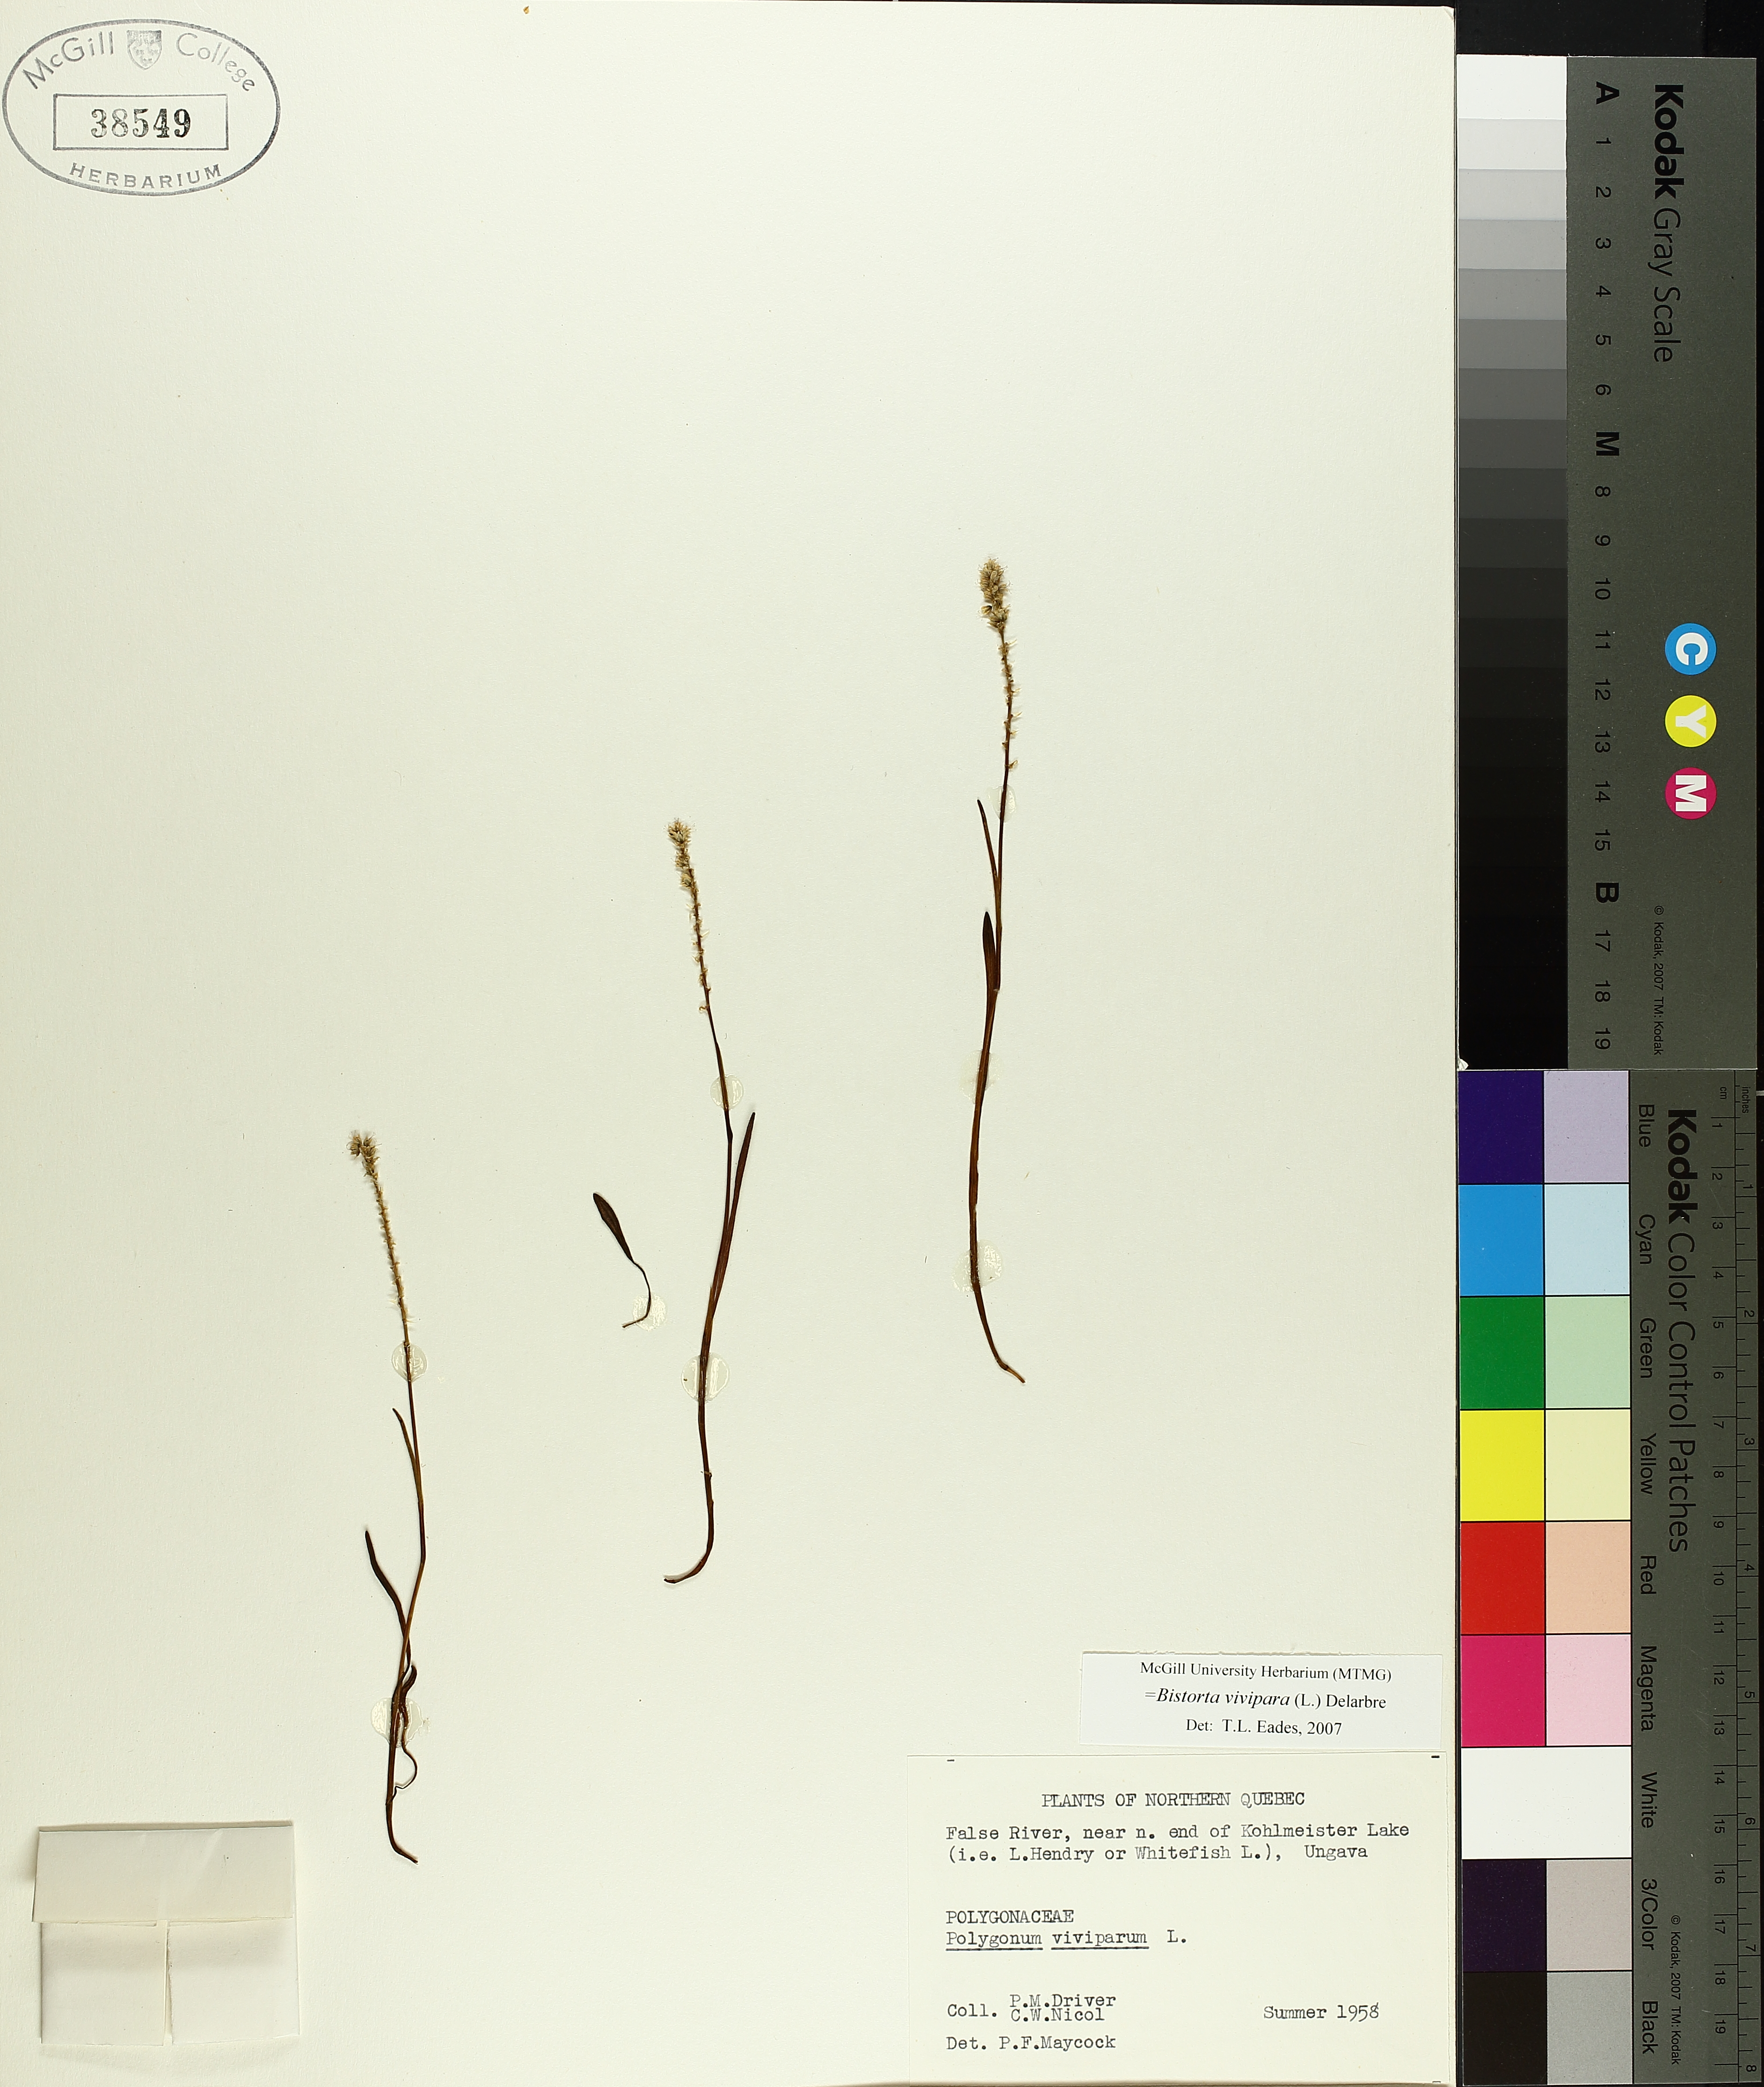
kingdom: Plantae
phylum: Tracheophyta
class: Magnoliopsida
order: Caryophyllales
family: Polygonaceae
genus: Bistorta
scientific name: Bistorta vivipara
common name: Alpine bistort
